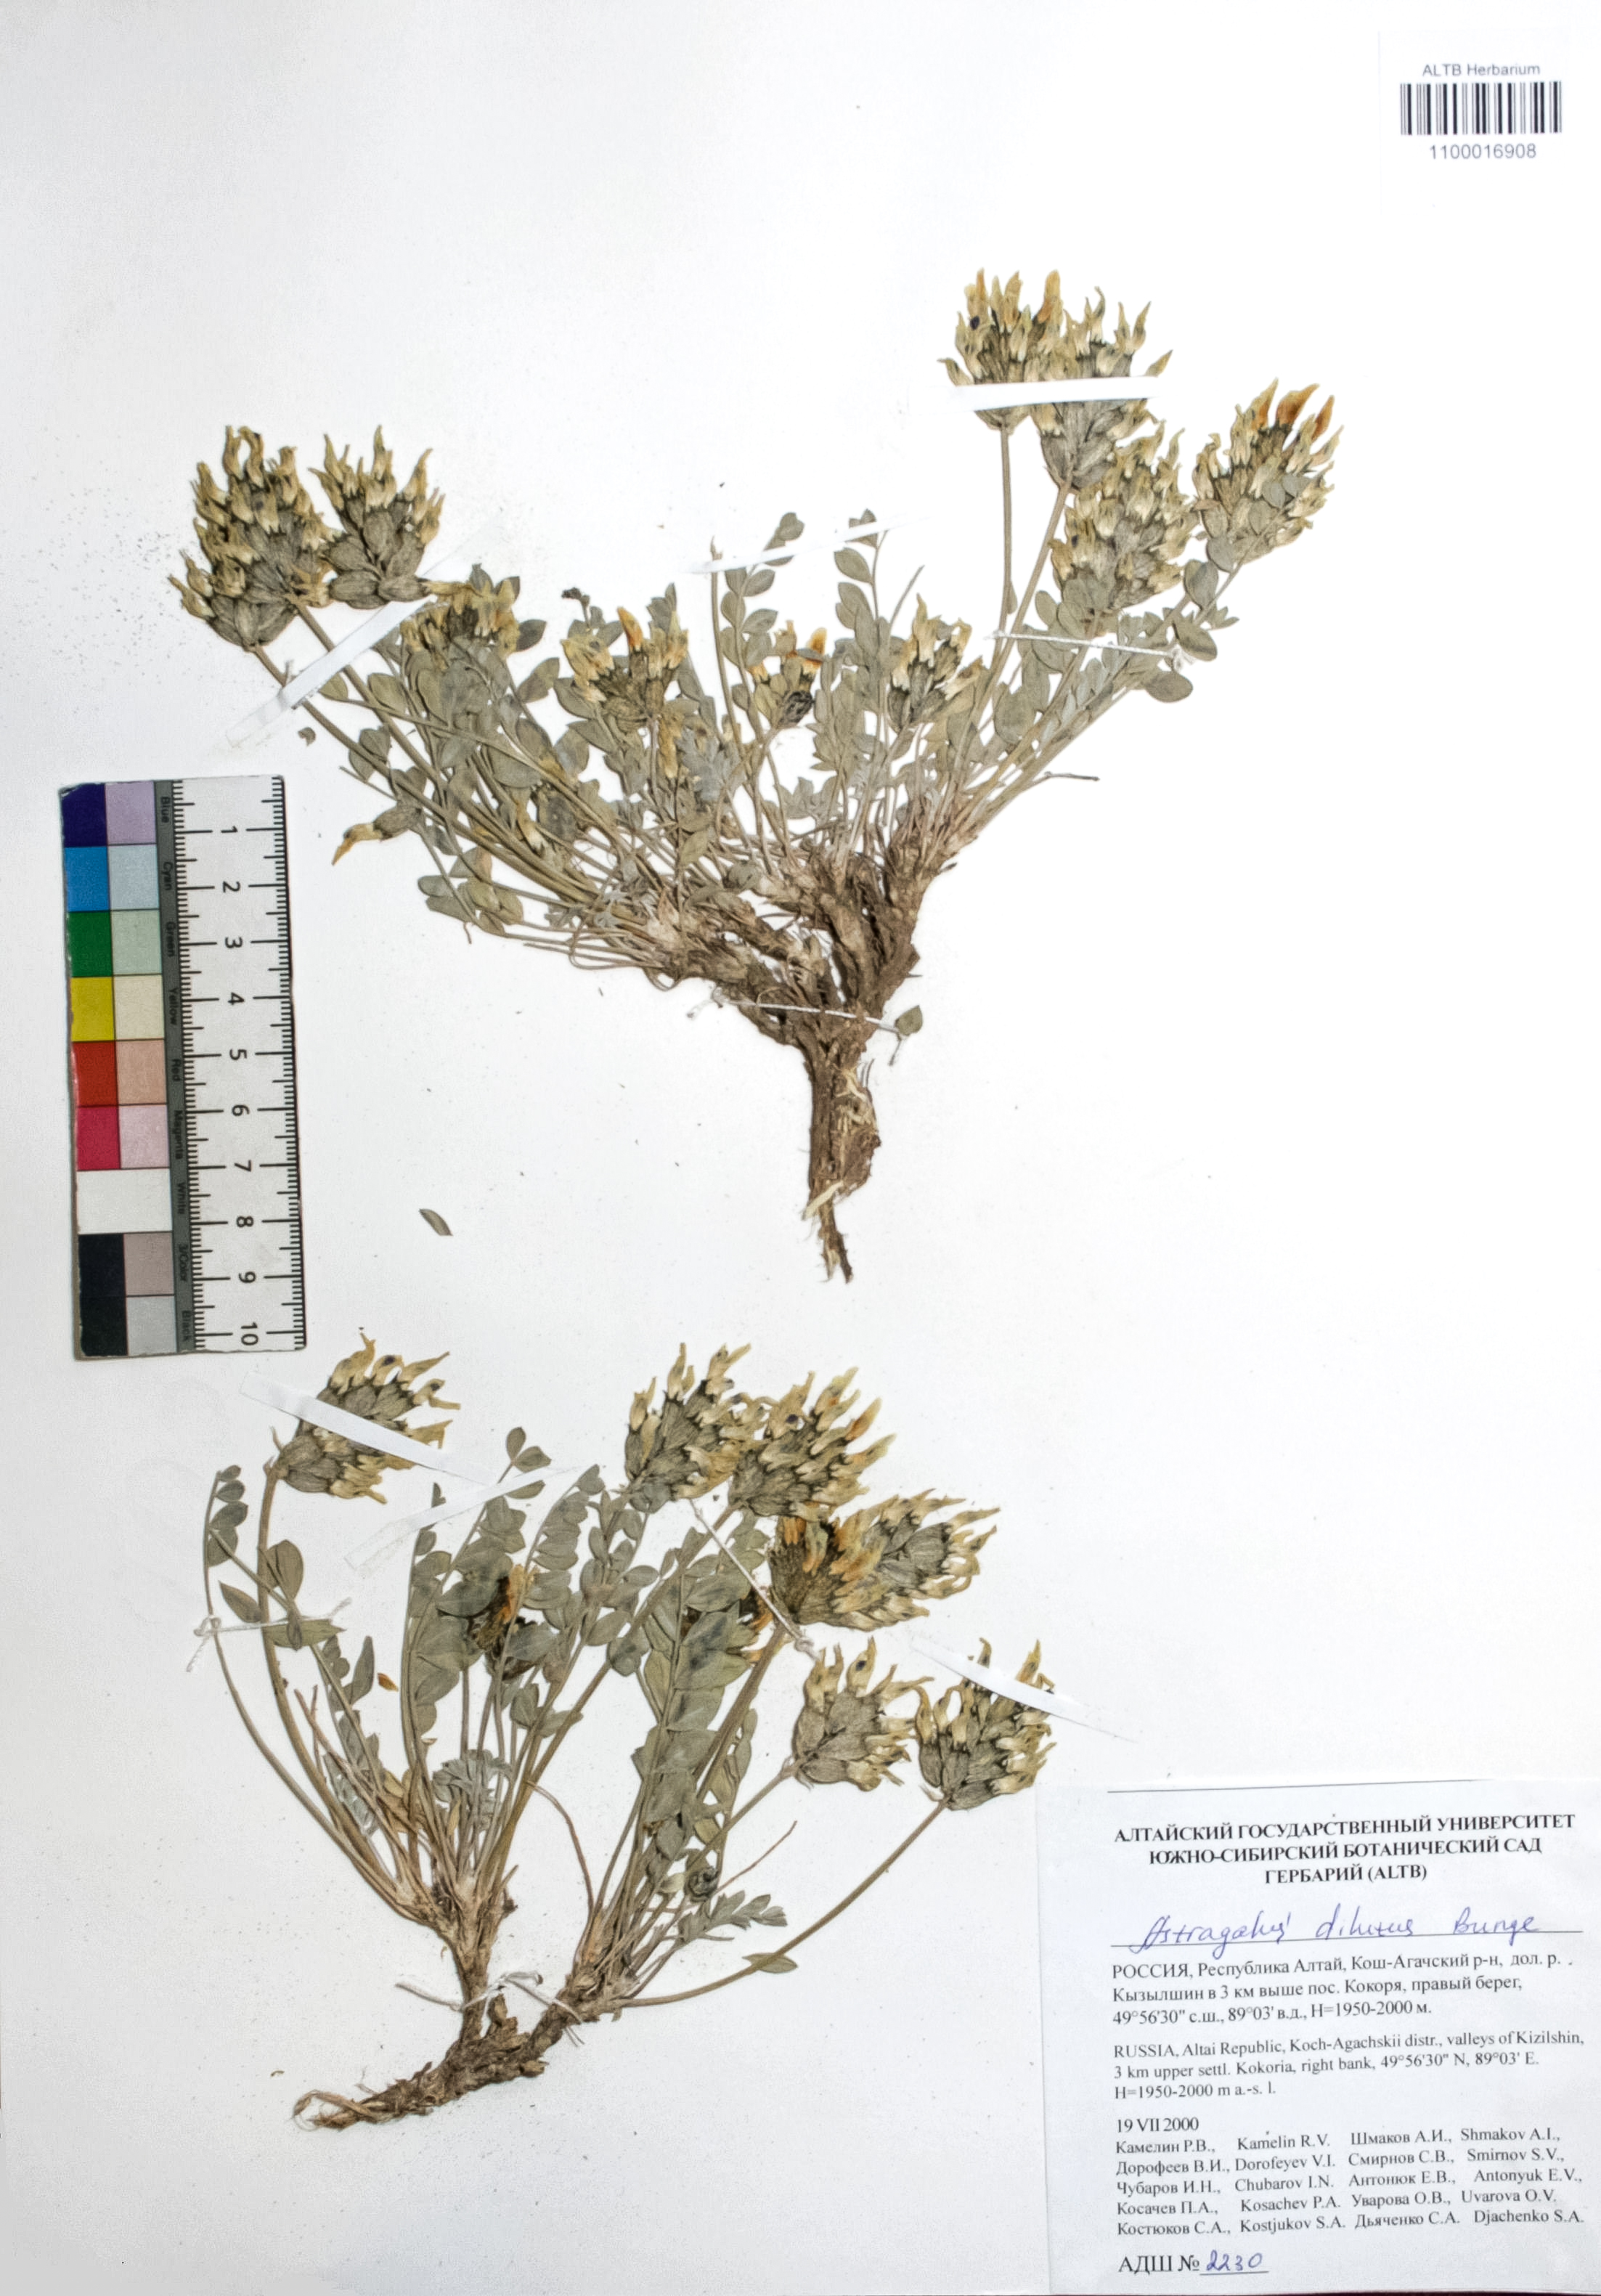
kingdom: Plantae
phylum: Tracheophyta
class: Magnoliopsida
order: Fabales
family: Fabaceae
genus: Astragalus
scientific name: Astragalus dilutus
